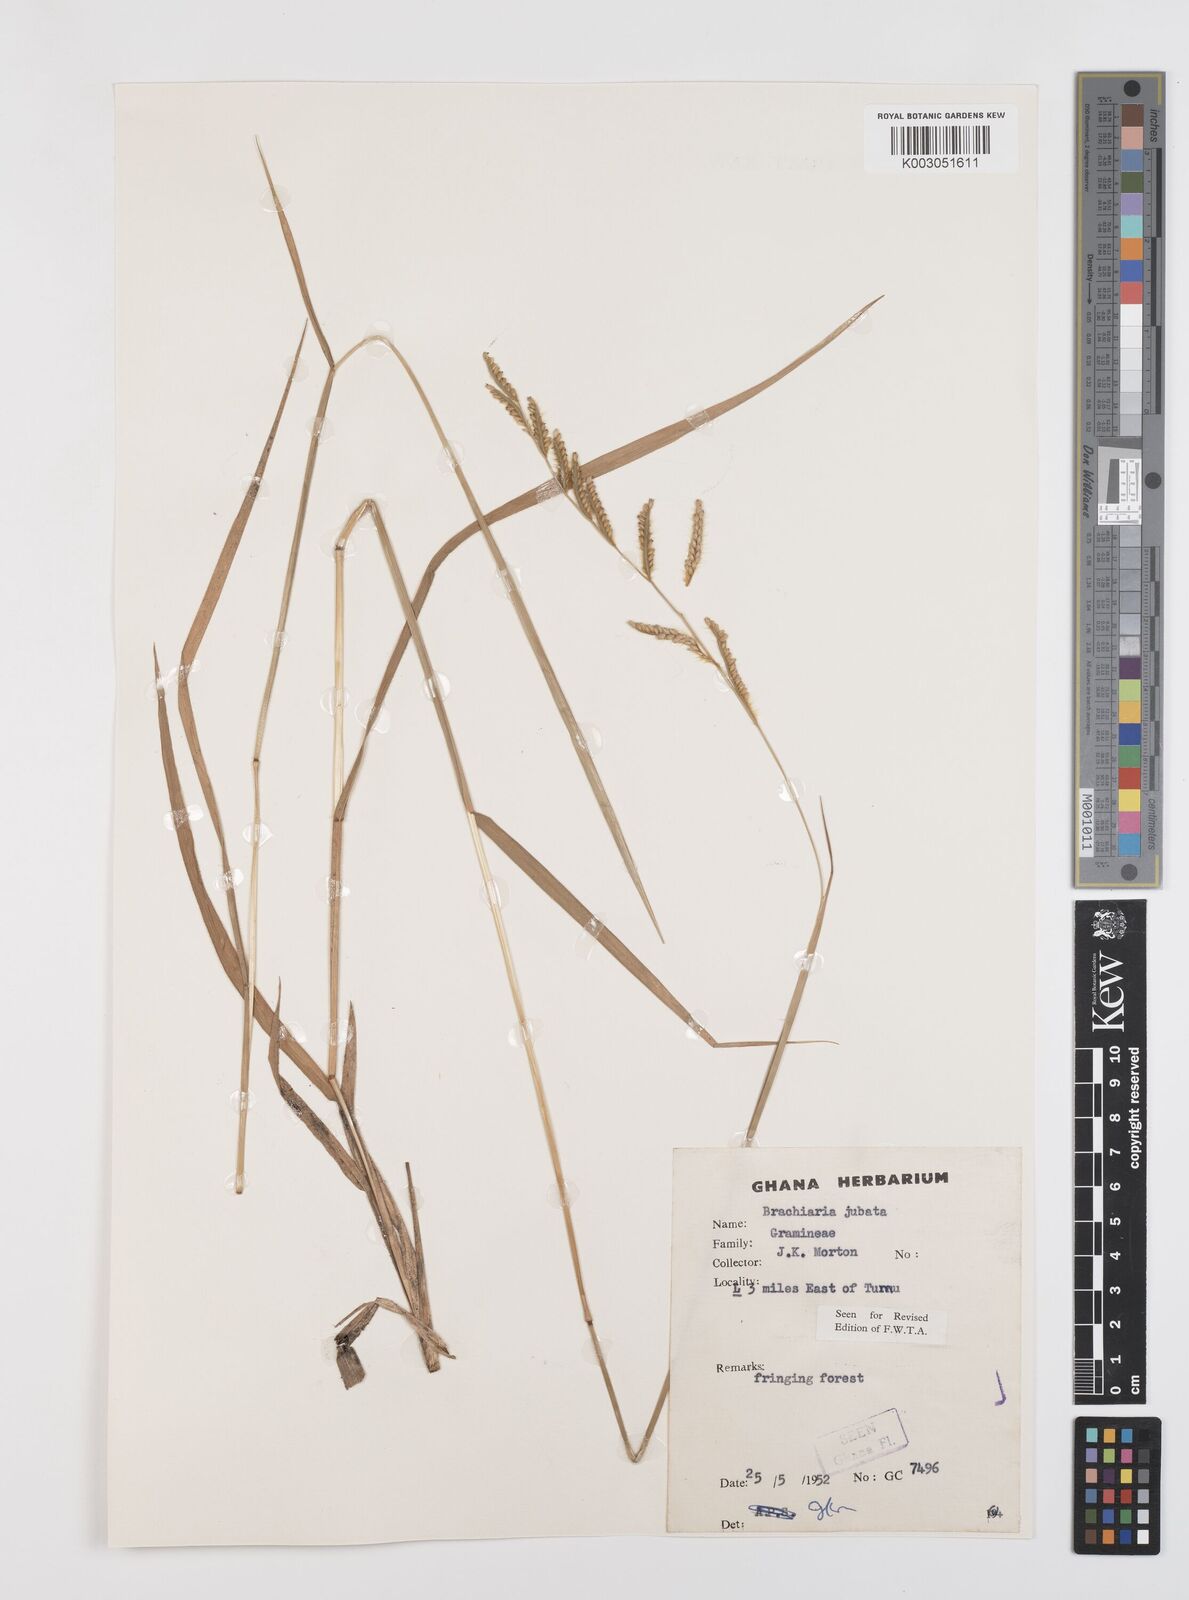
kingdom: Plantae
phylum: Tracheophyta
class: Liliopsida
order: Poales
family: Poaceae
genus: Urochloa
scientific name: Urochloa jubata
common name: Buffalograss
